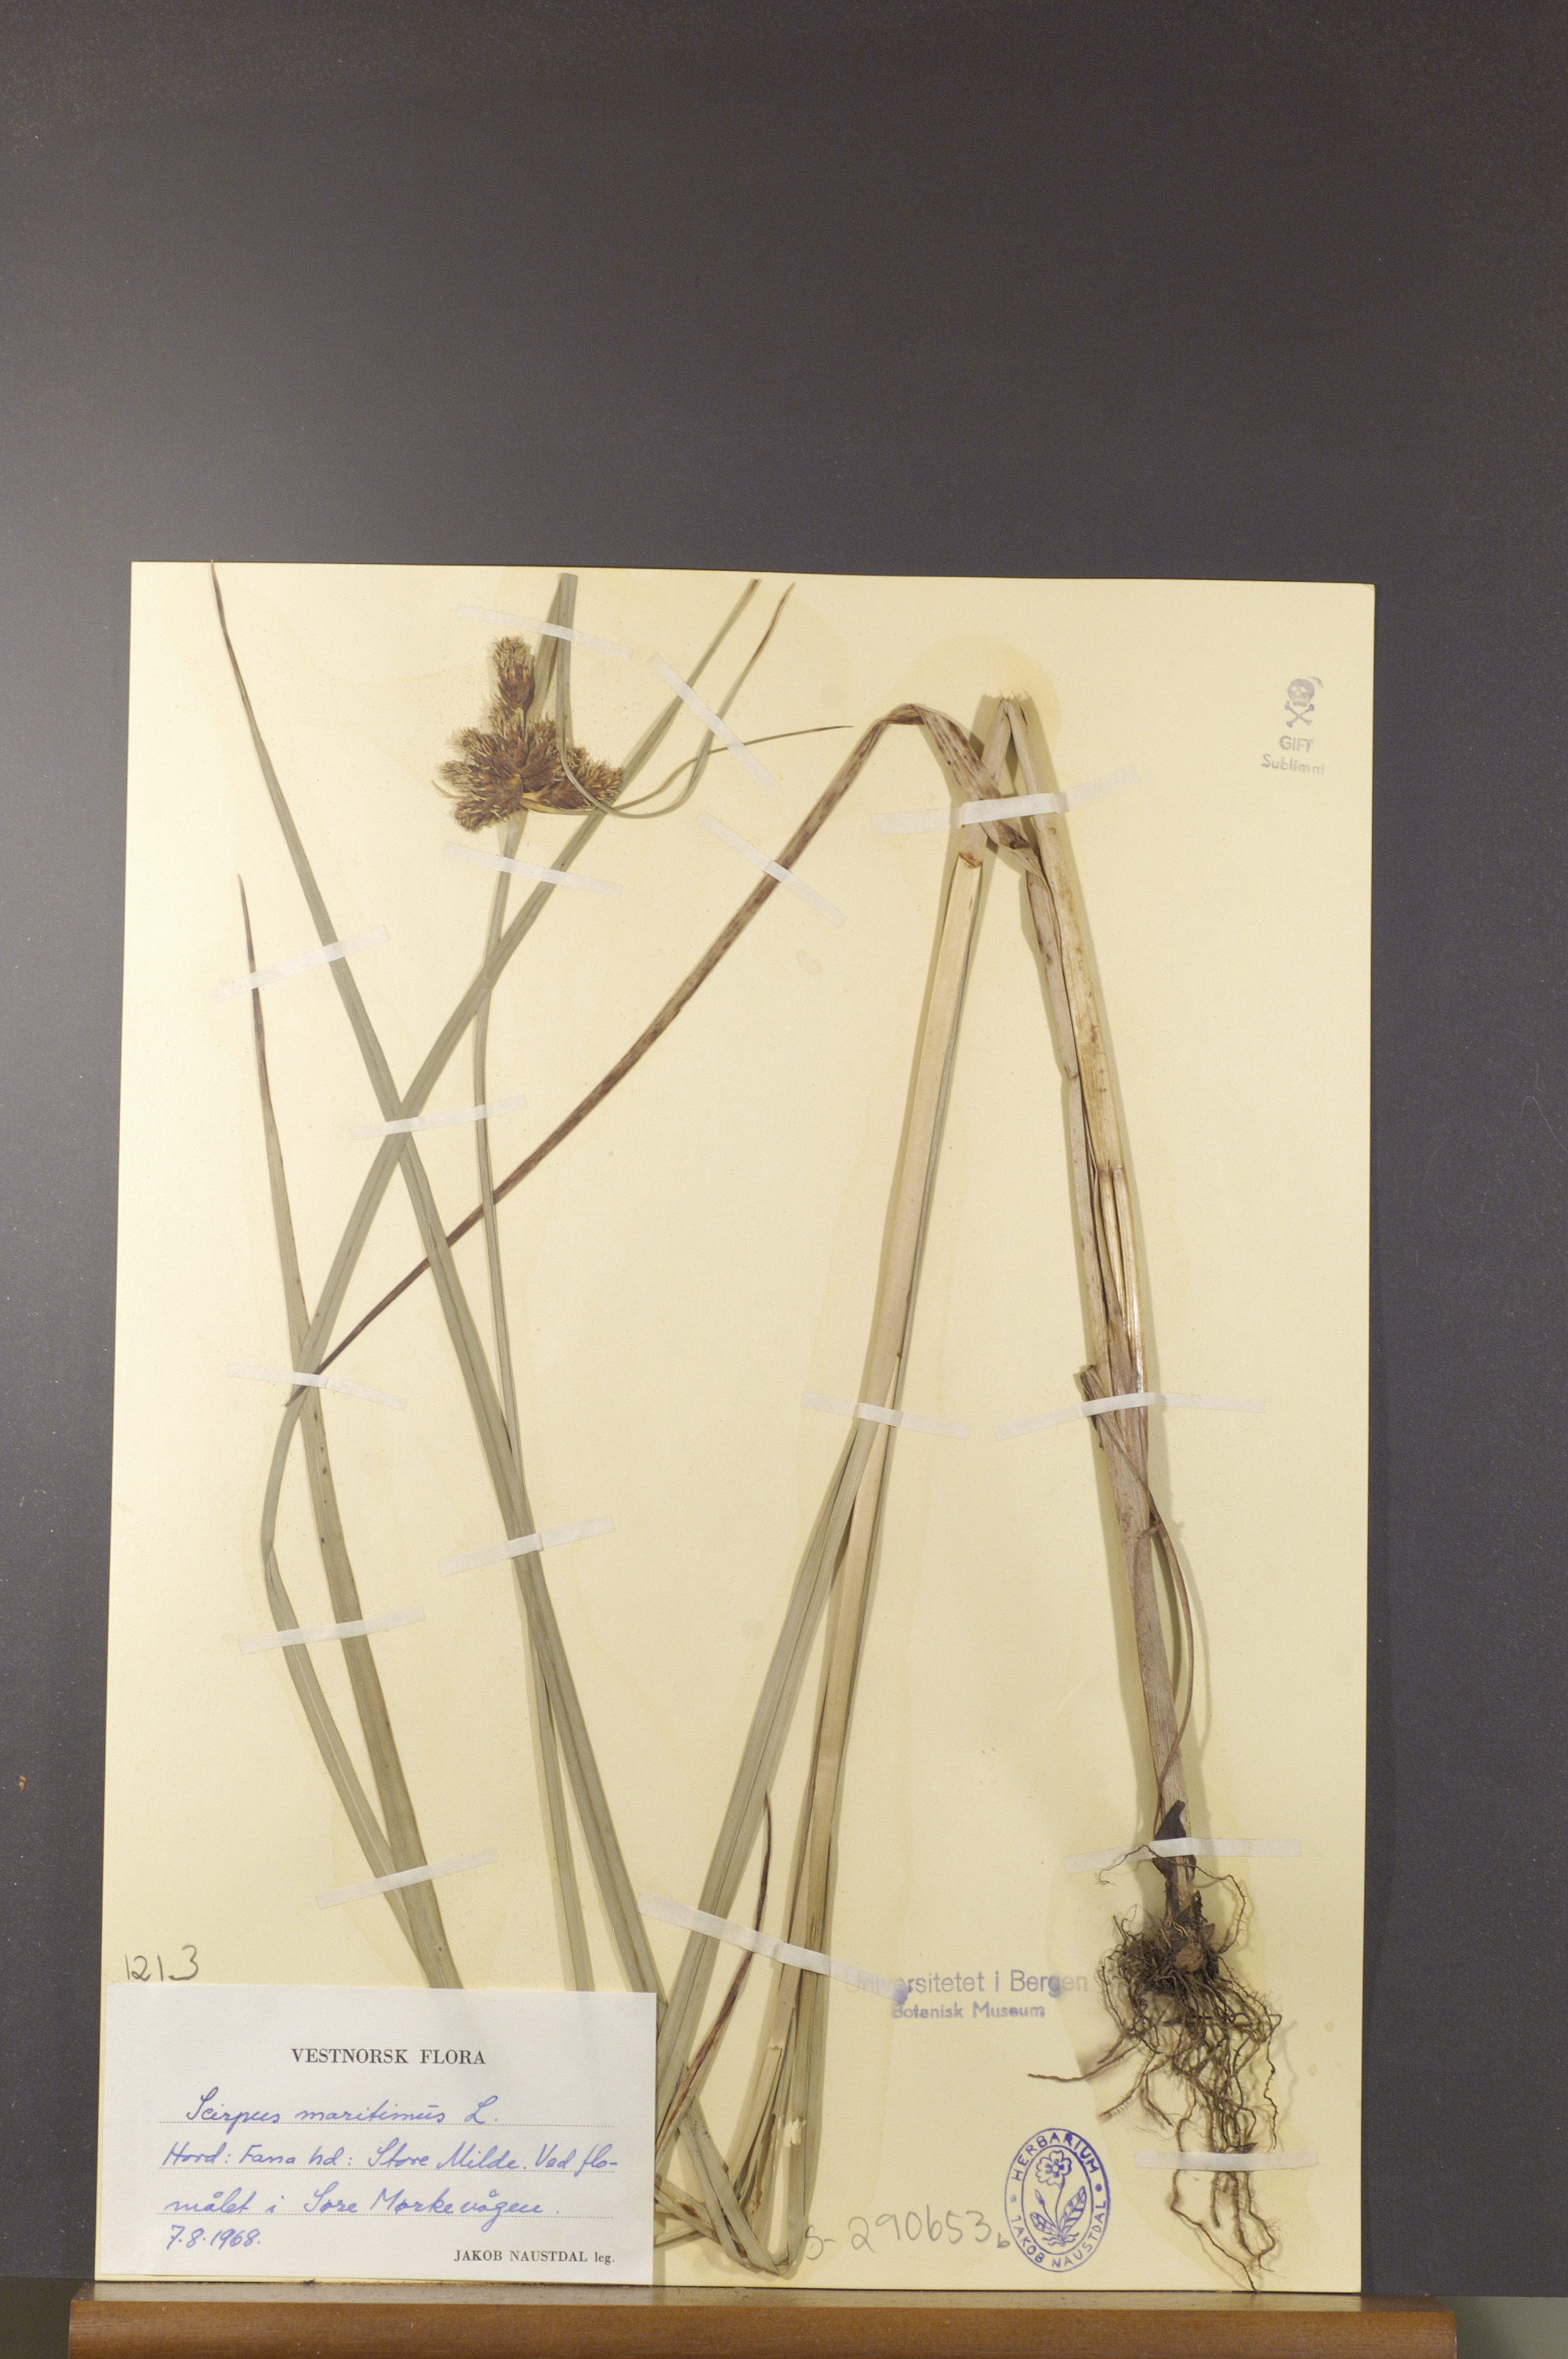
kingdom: Plantae
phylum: Tracheophyta
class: Liliopsida
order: Poales
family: Cyperaceae
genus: Bolboschoenus
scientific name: Bolboschoenus maritimus
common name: Sea club-rush
